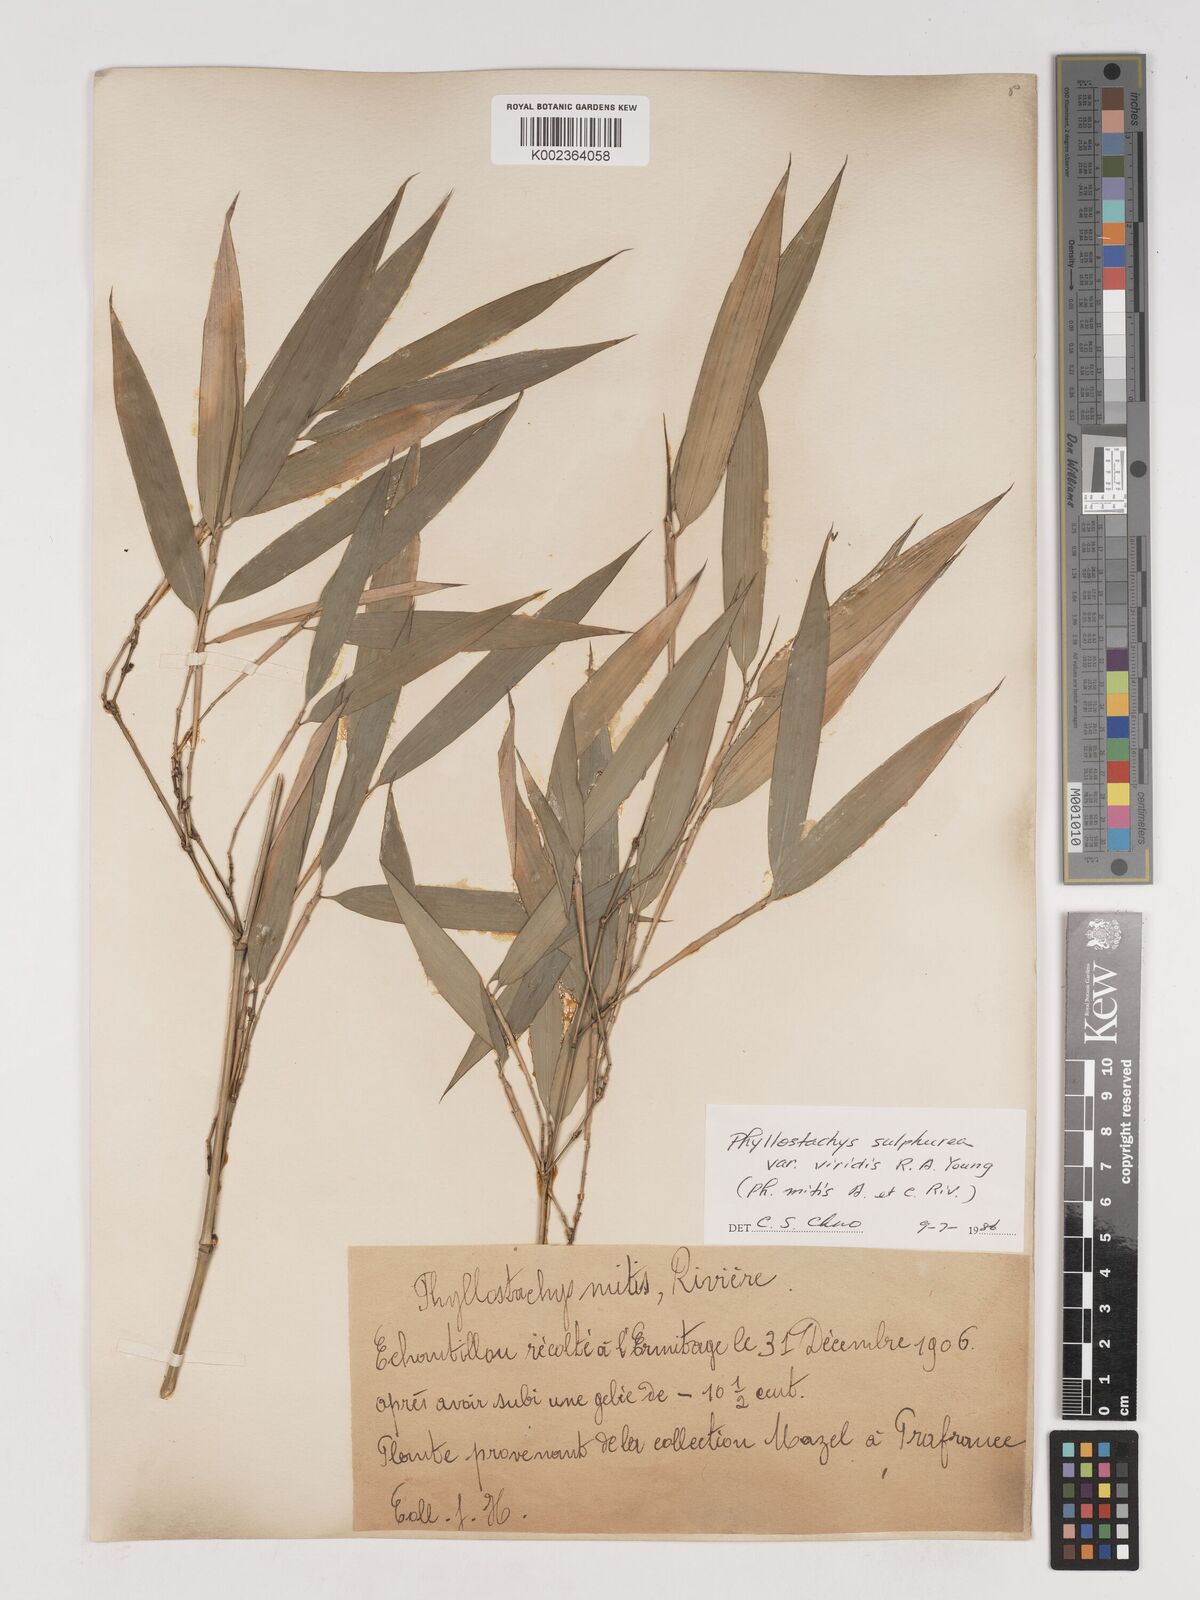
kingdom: Plantae
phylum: Tracheophyta
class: Liliopsida
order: Poales
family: Poaceae
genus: Phyllostachys
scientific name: Phyllostachys sulphurea
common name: Sulphur bamboo
